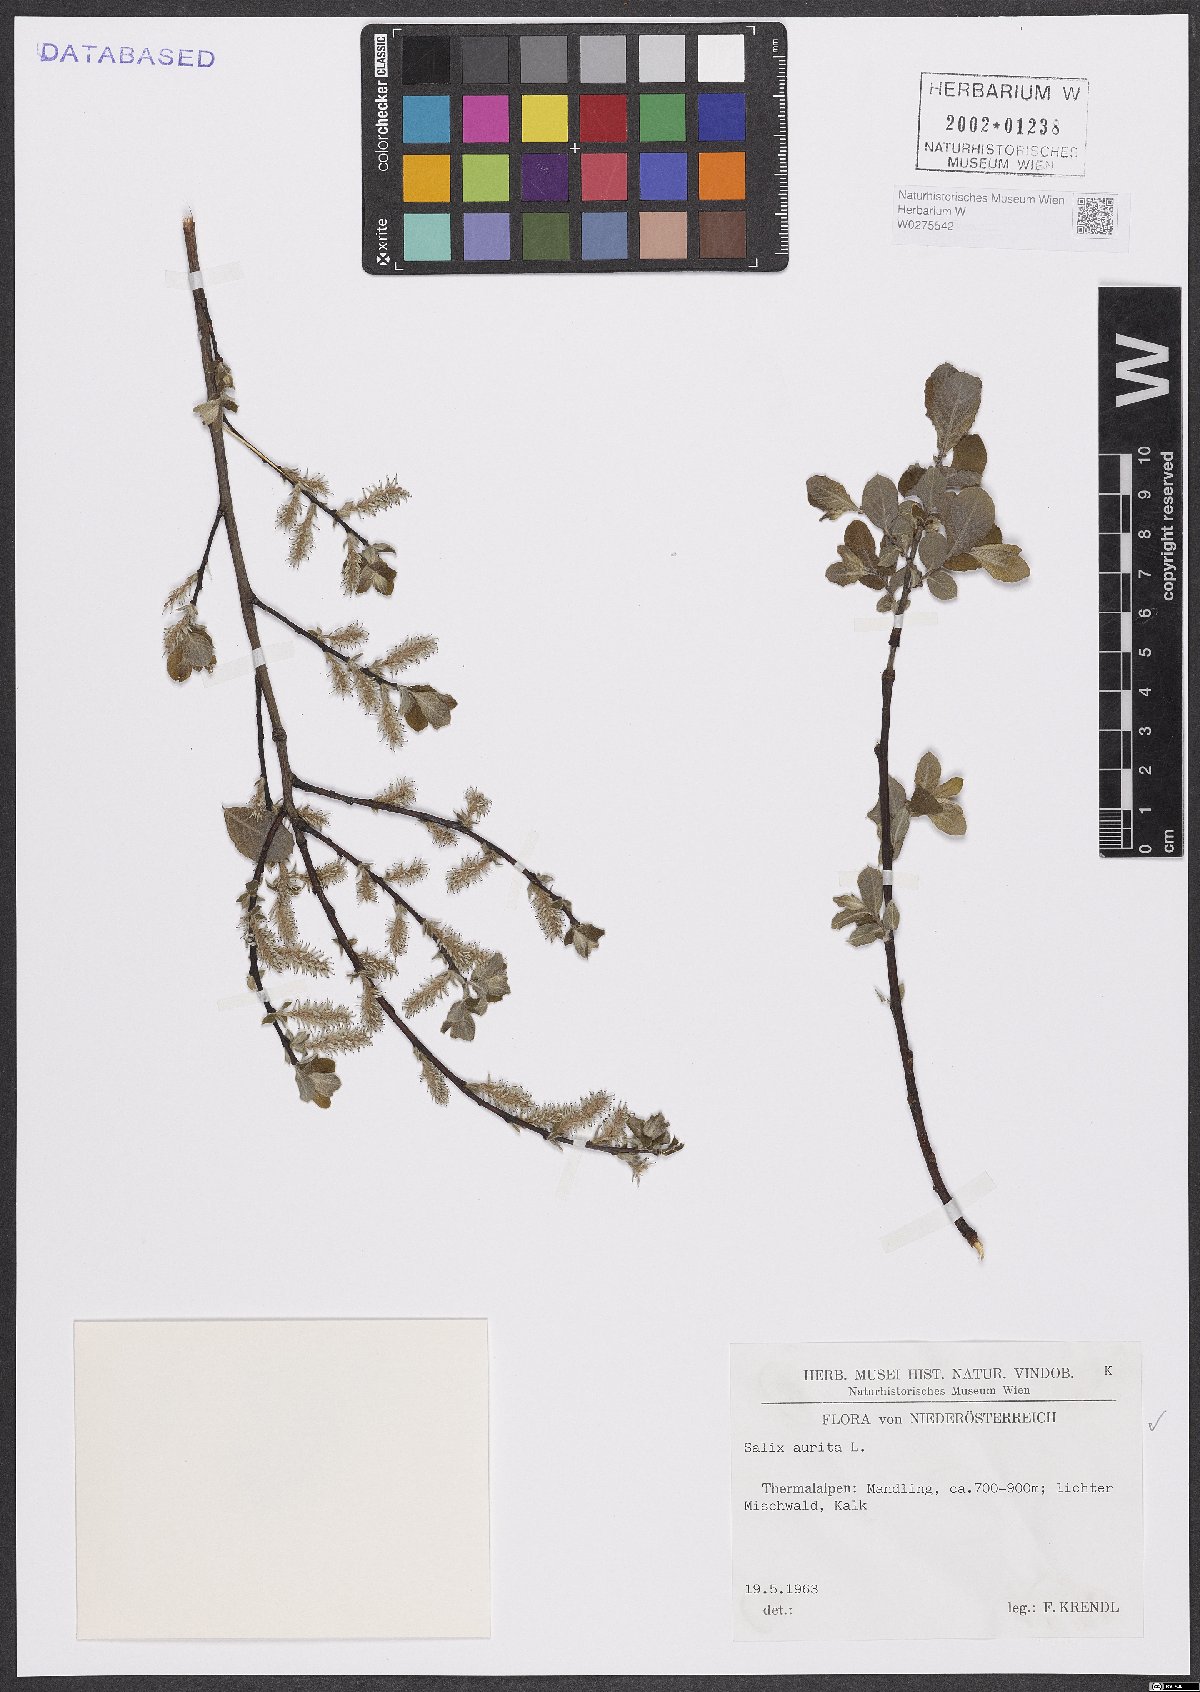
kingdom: Plantae
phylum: Tracheophyta
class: Magnoliopsida
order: Malpighiales
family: Salicaceae
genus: Salix
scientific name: Salix aurita
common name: Eared willow
